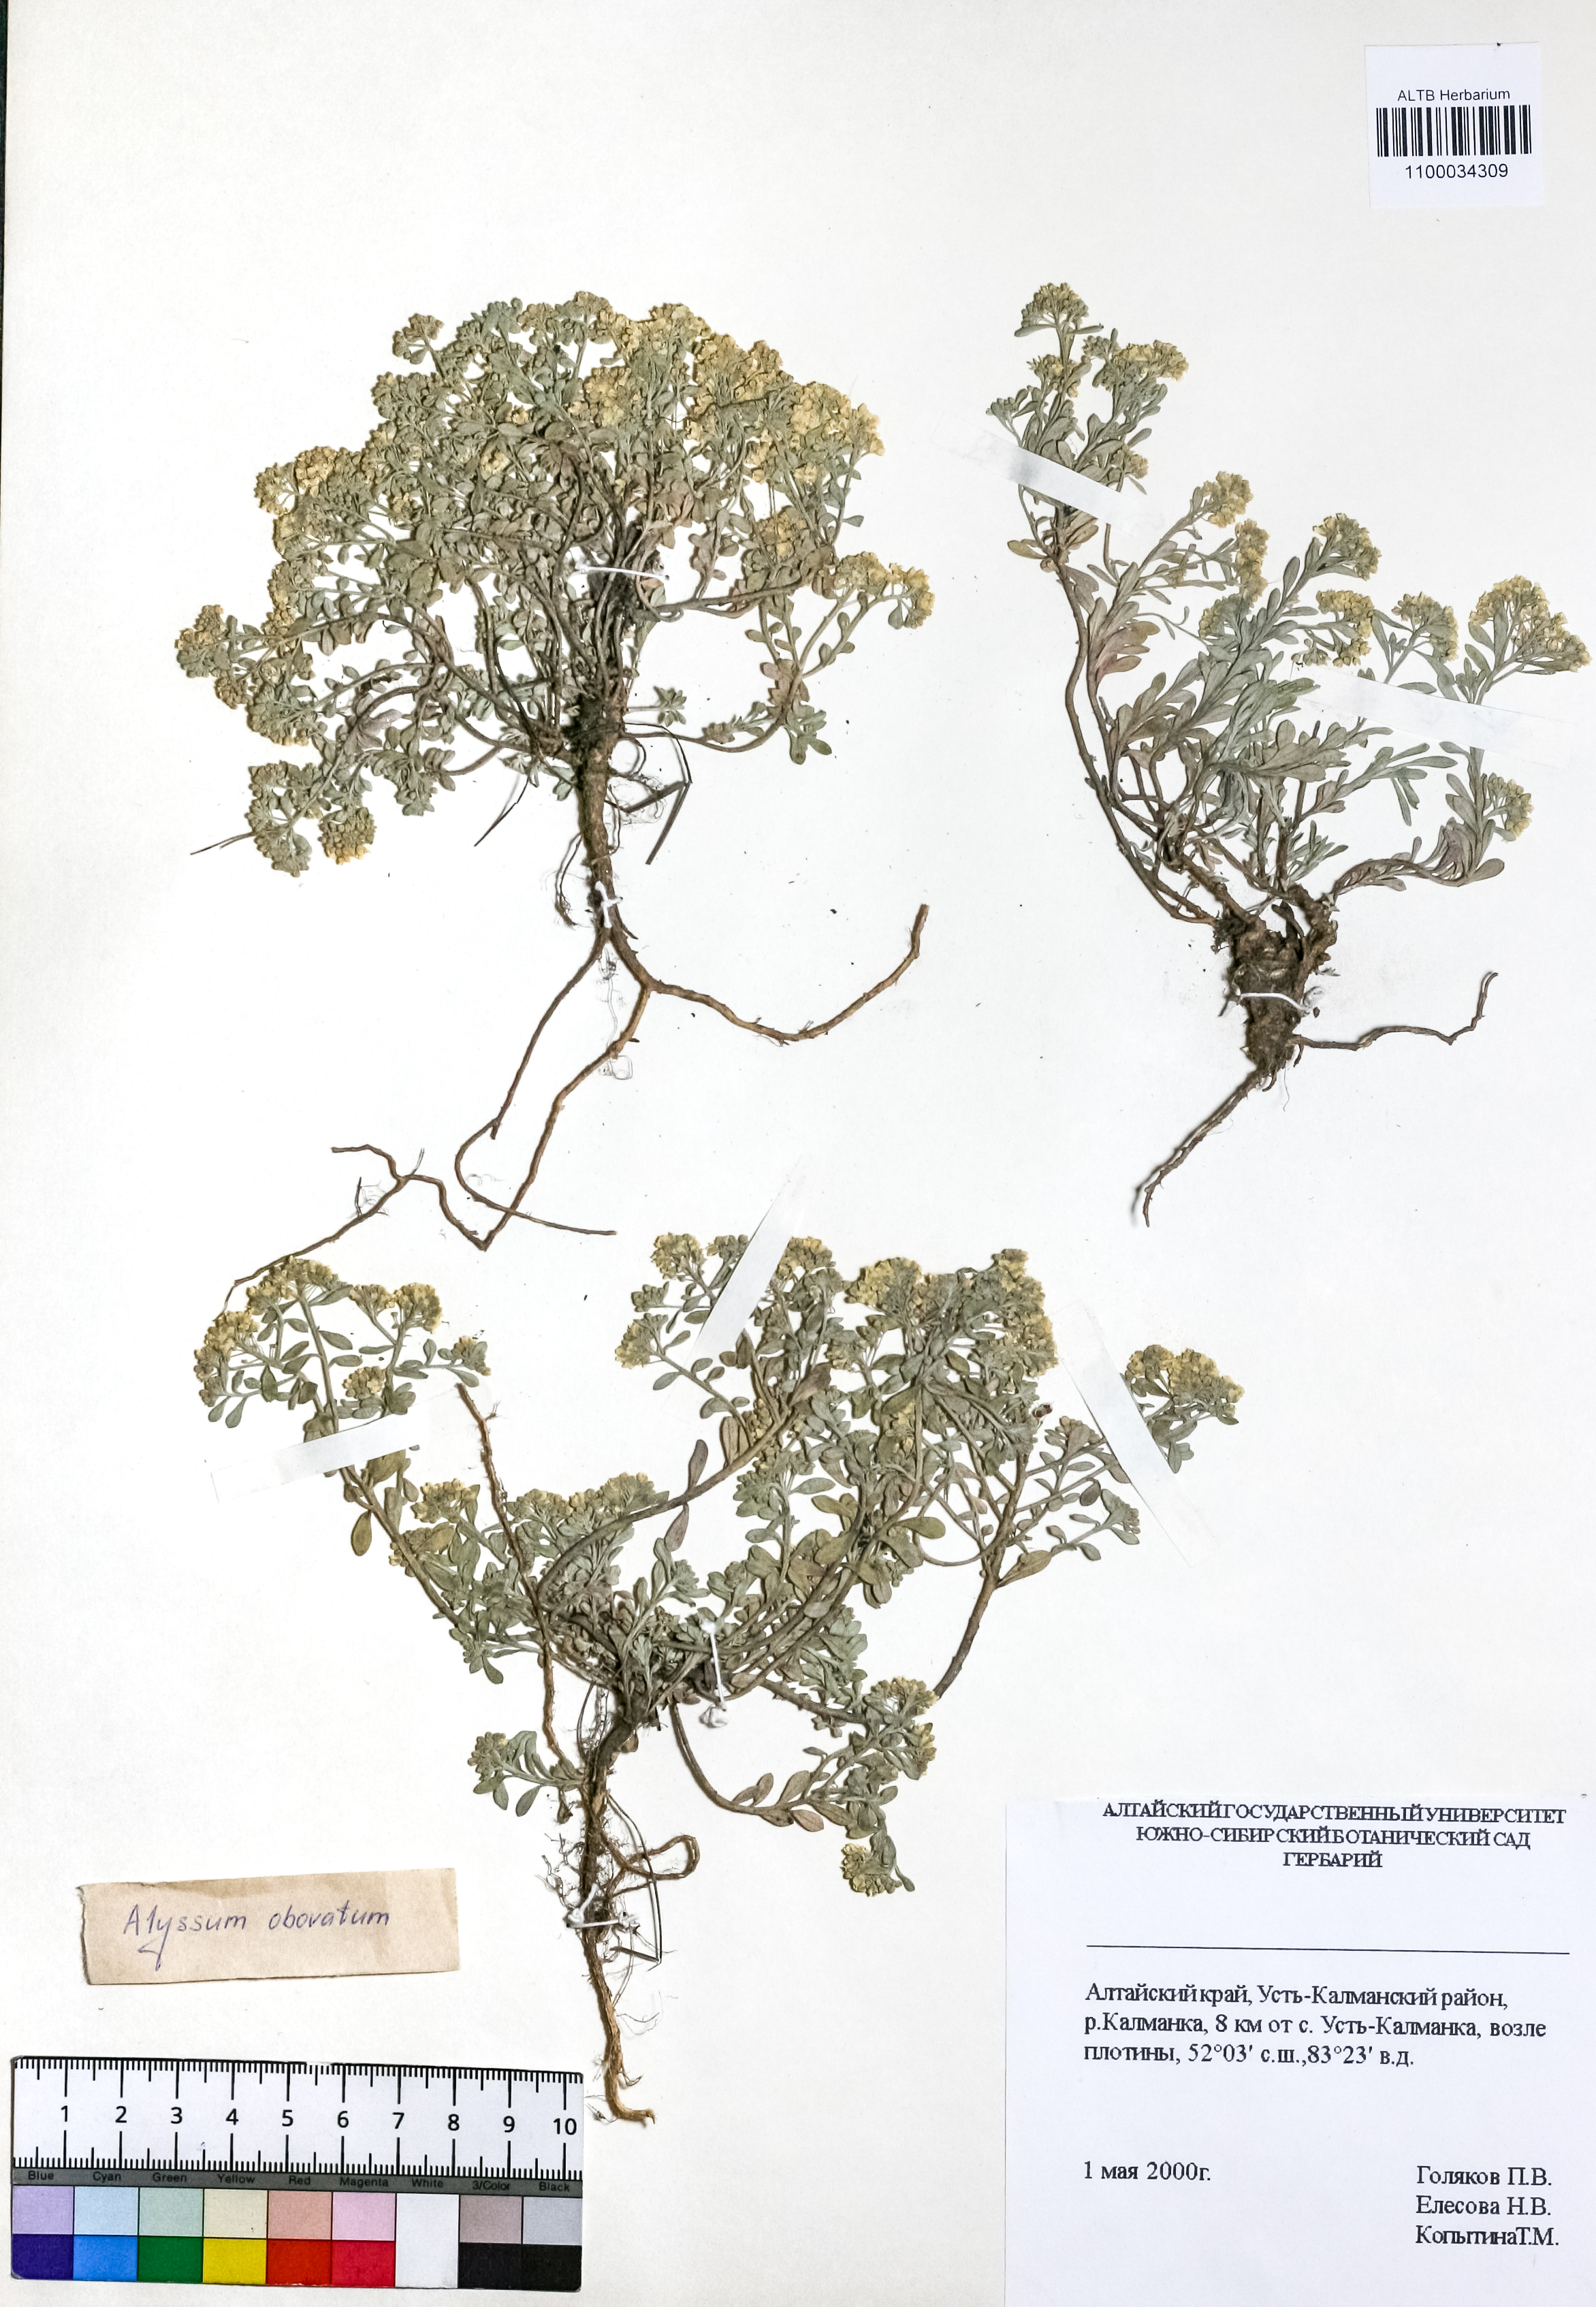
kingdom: Plantae
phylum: Tracheophyta
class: Magnoliopsida
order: Brassicales
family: Brassicaceae
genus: Odontarrhena
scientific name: Odontarrhena obovata
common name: American alyssum
